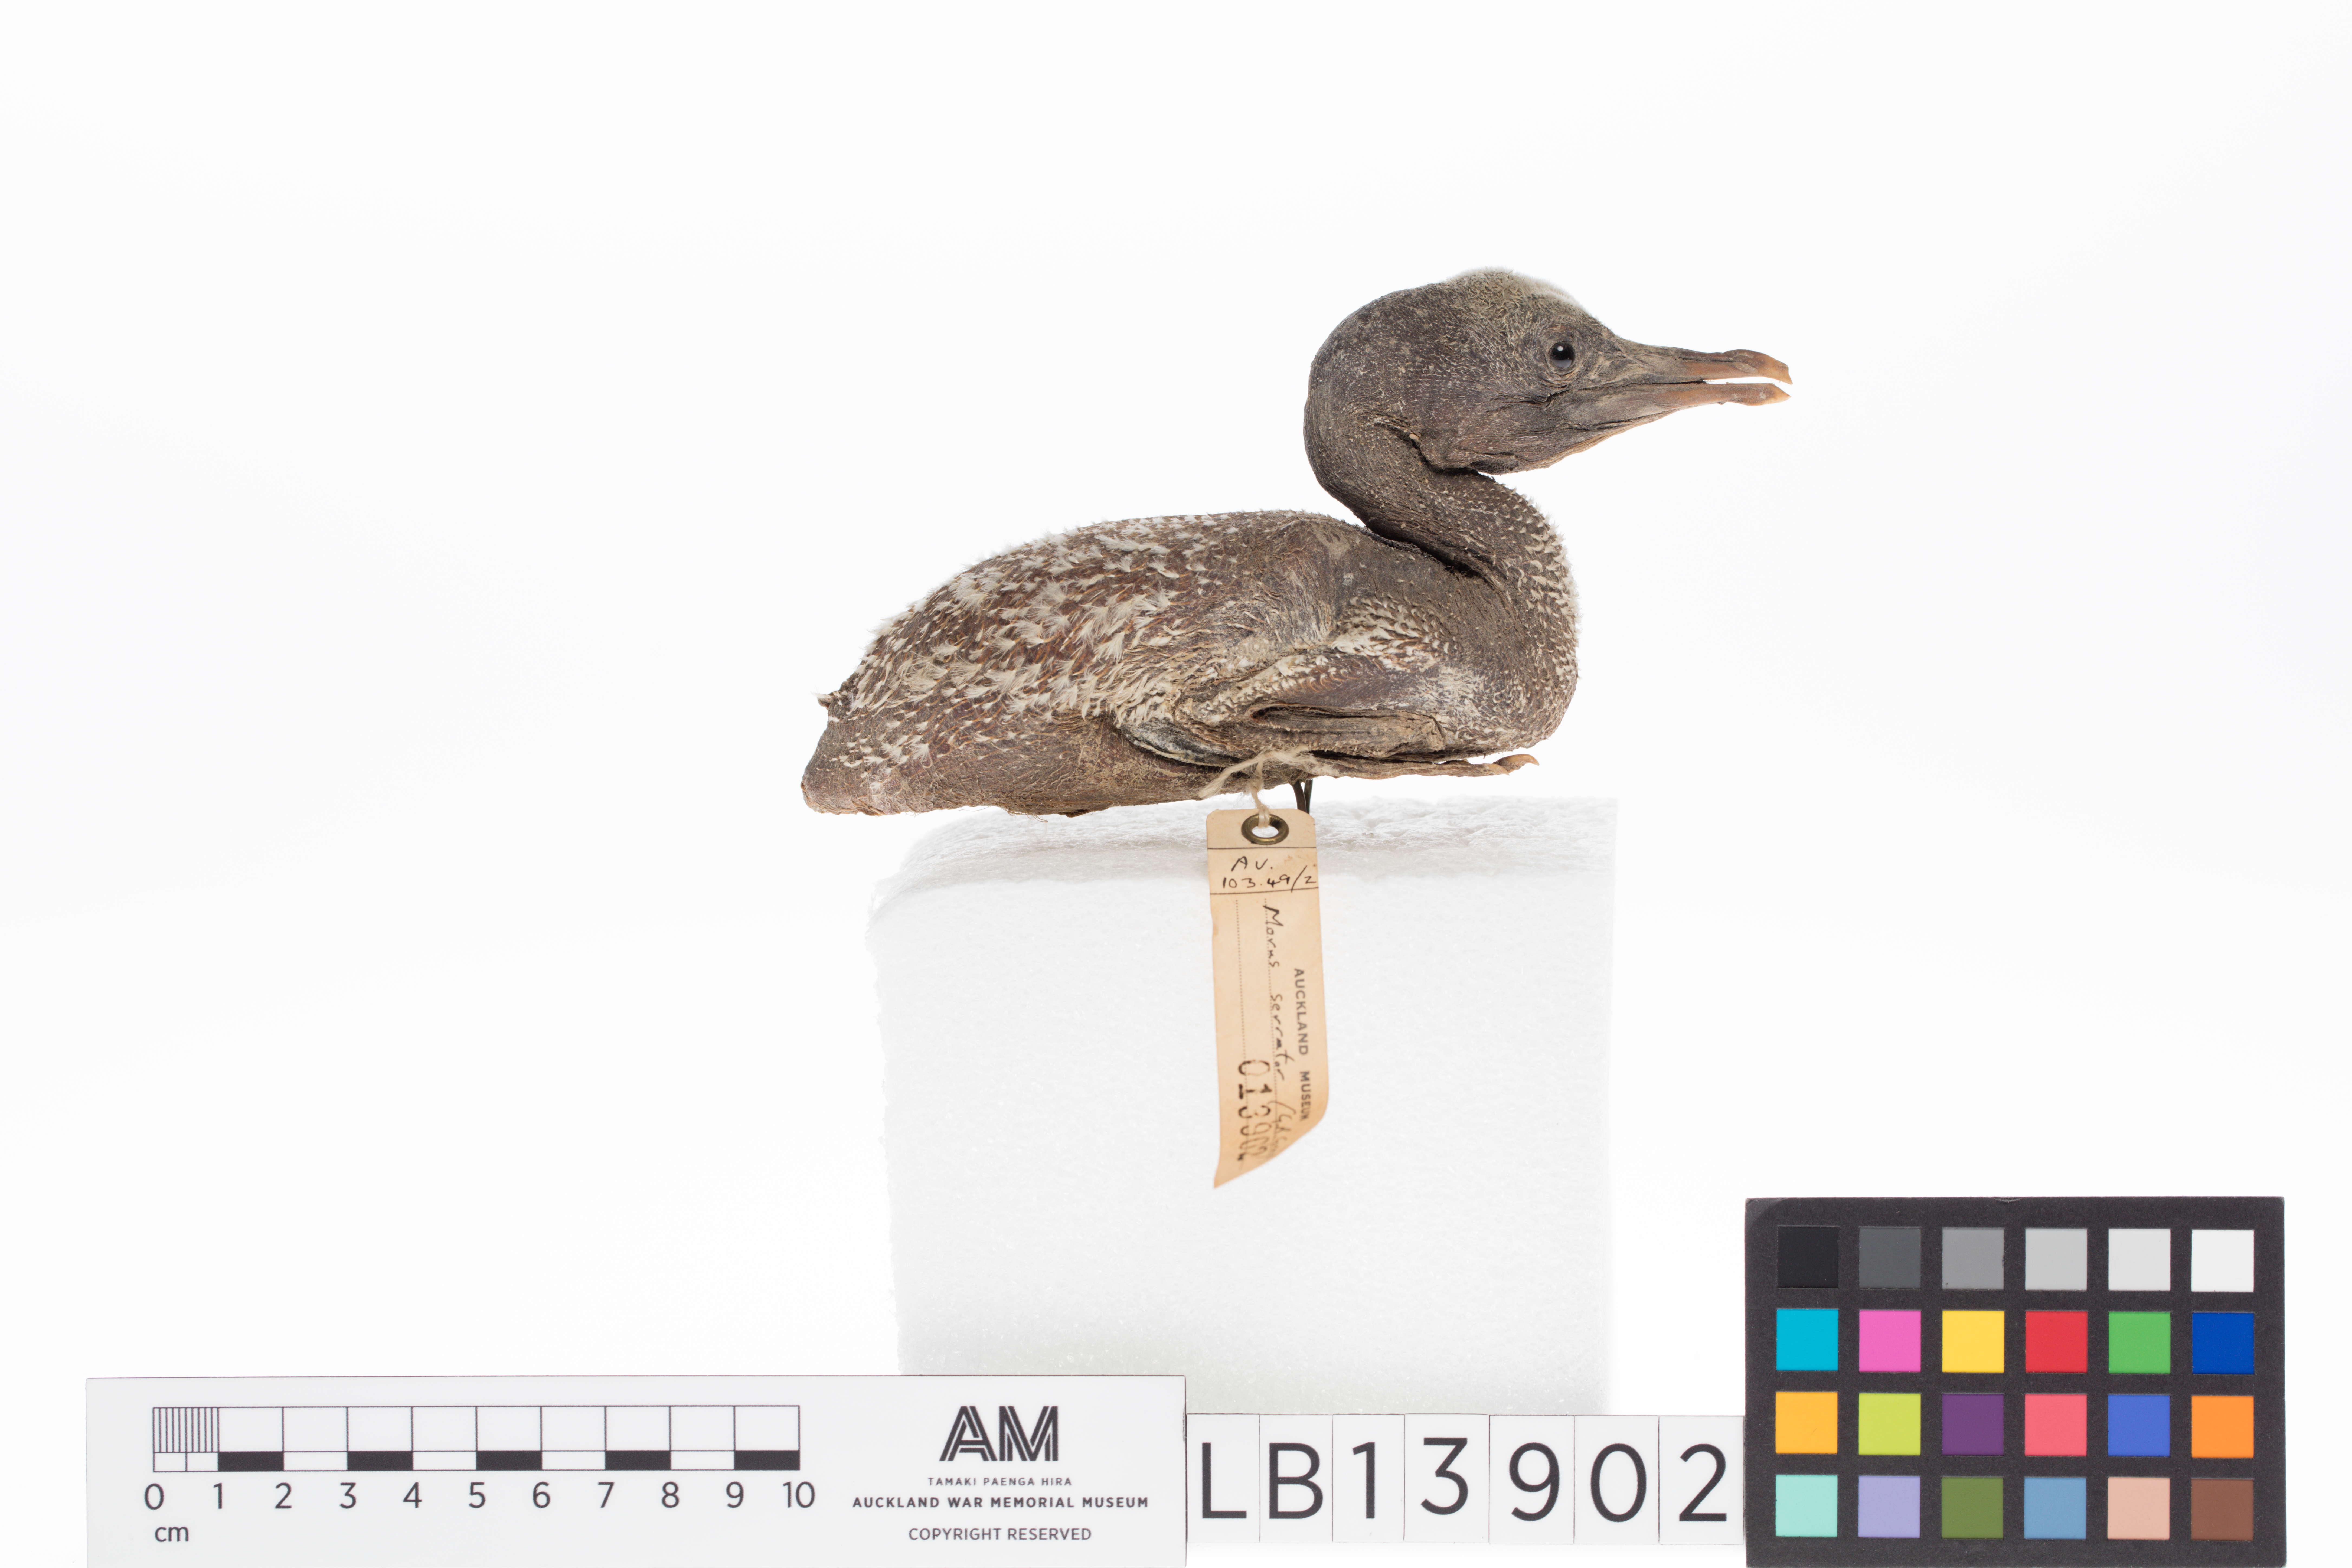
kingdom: Animalia
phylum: Chordata
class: Aves
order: Suliformes
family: Sulidae
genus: Morus
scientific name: Morus serrator
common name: Australasian gannet
